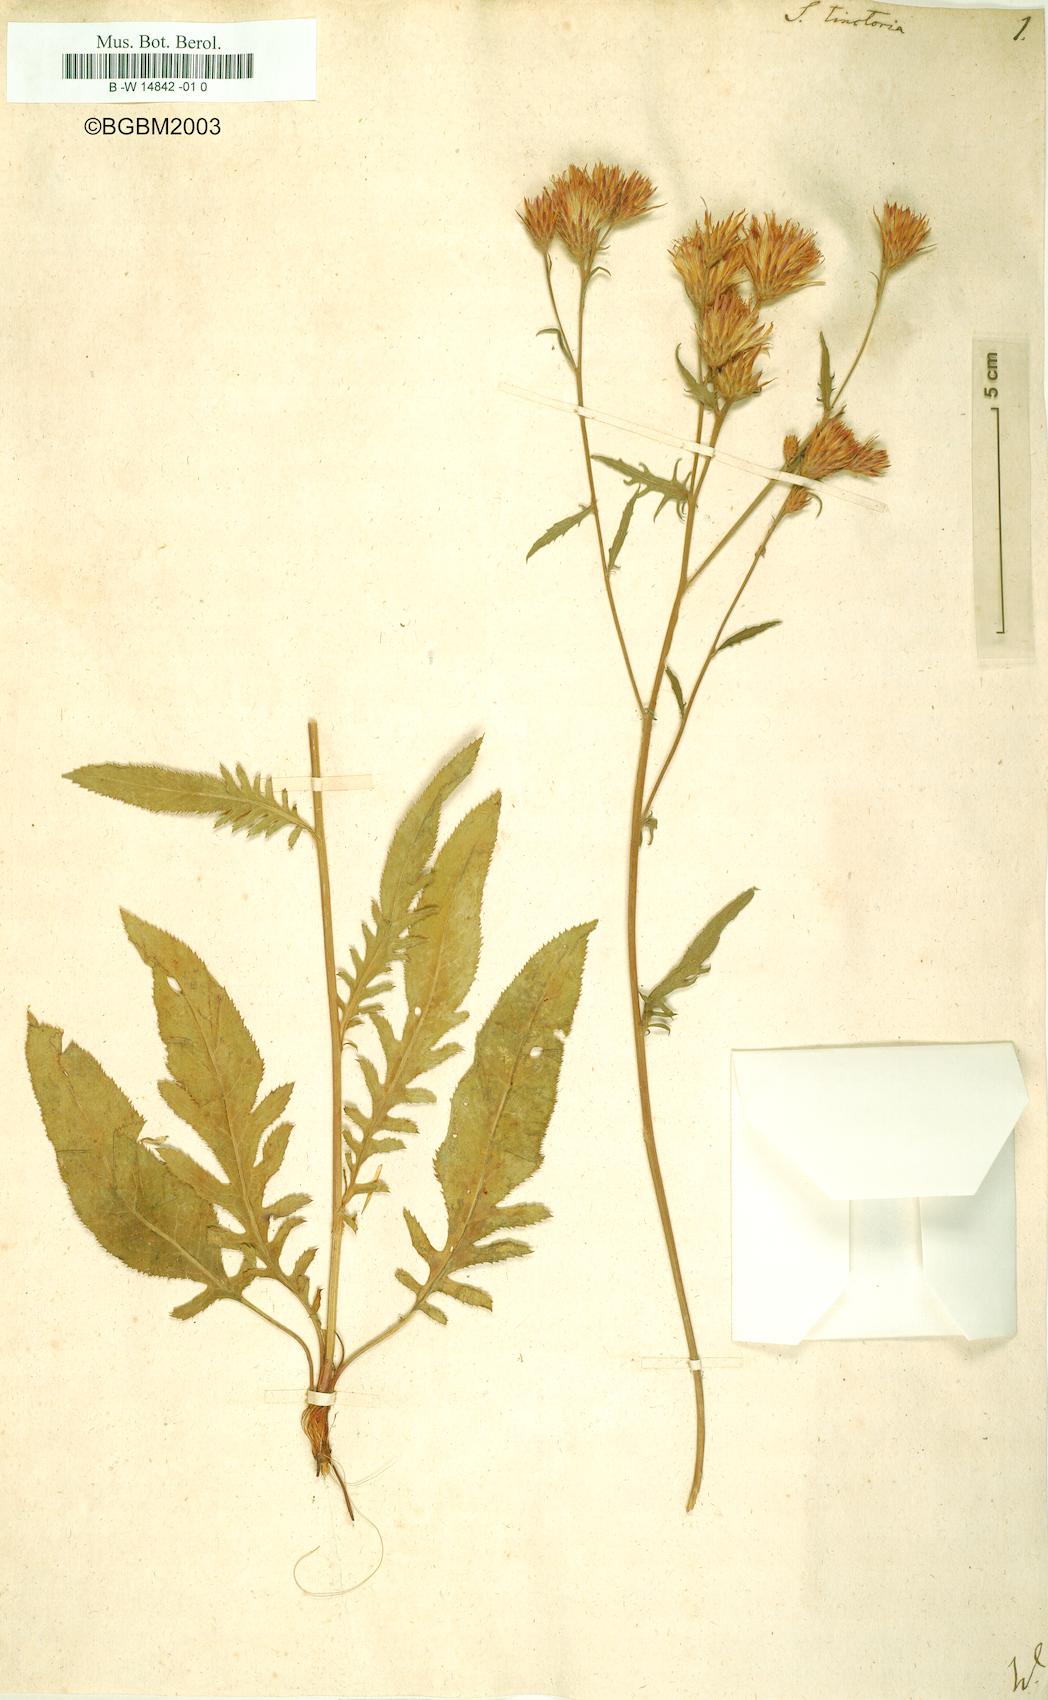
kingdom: Plantae
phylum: Tracheophyta
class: Magnoliopsida
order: Asterales
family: Asteraceae
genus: Serratula
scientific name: Serratula tinctoria
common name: Saw-wort
